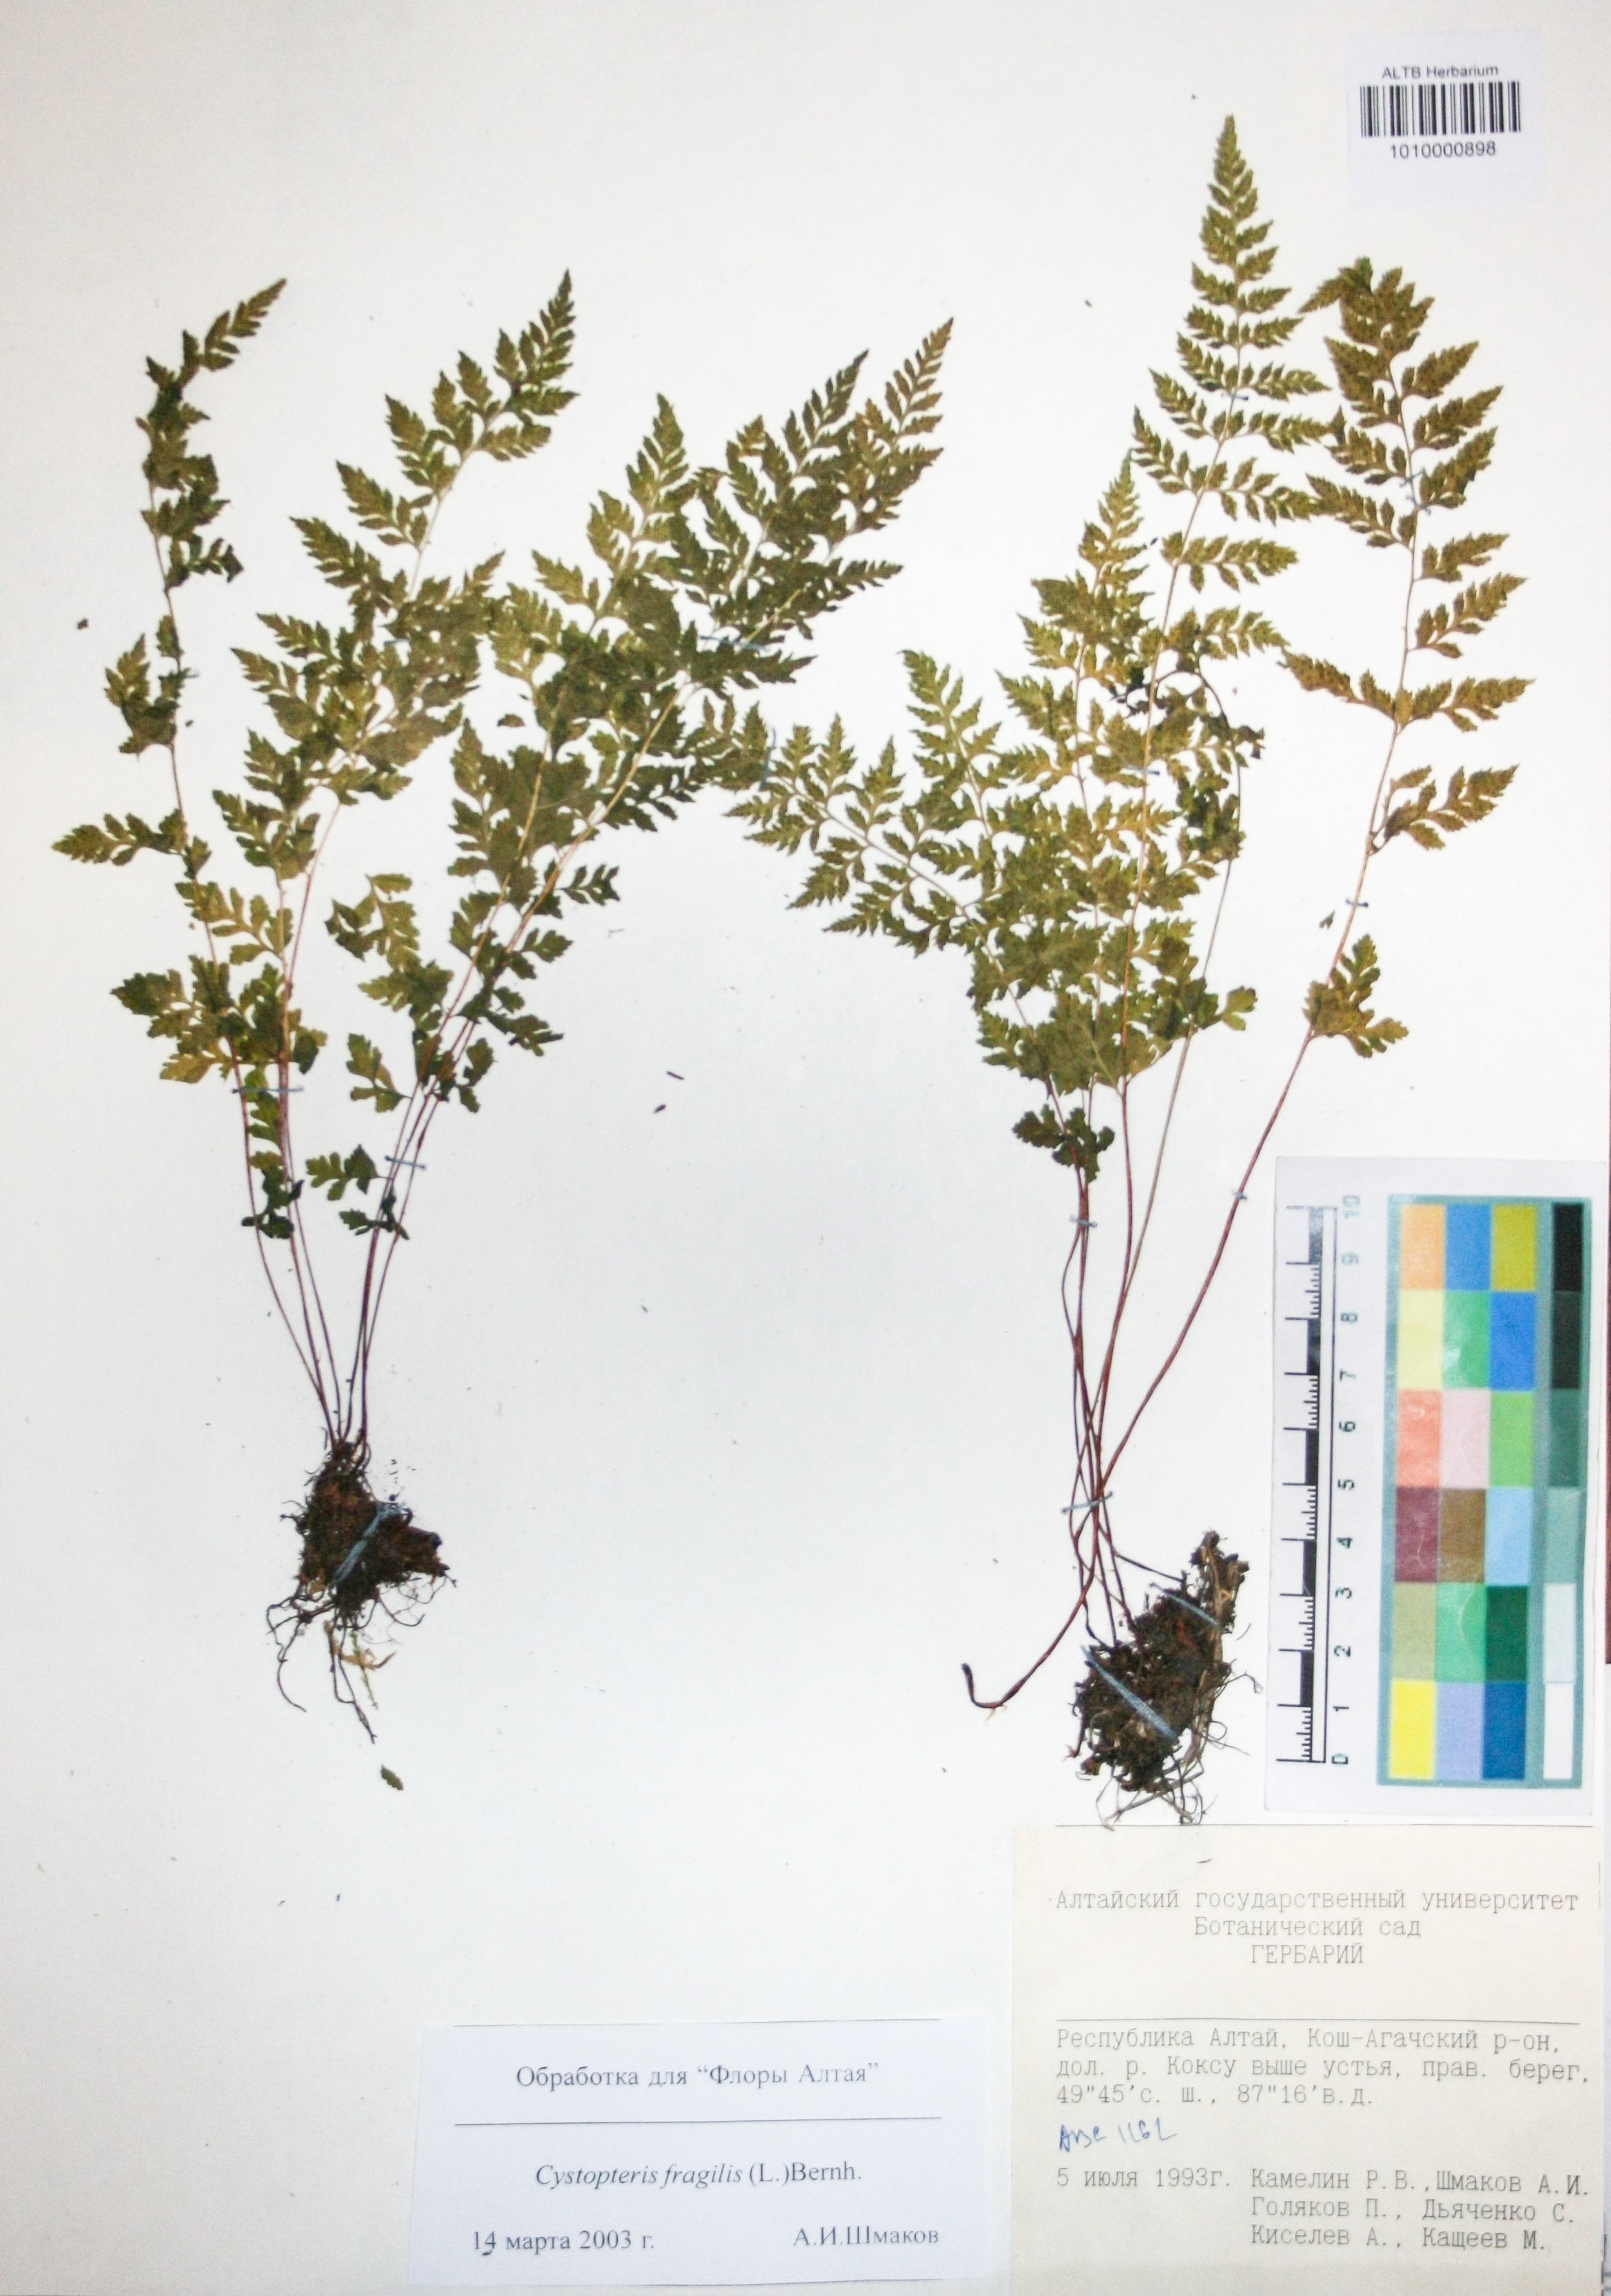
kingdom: Plantae
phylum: Tracheophyta
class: Polypodiopsida
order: Polypodiales
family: Cystopteridaceae
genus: Cystopteris
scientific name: Cystopteris fragilis
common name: Brittle bladder fern
